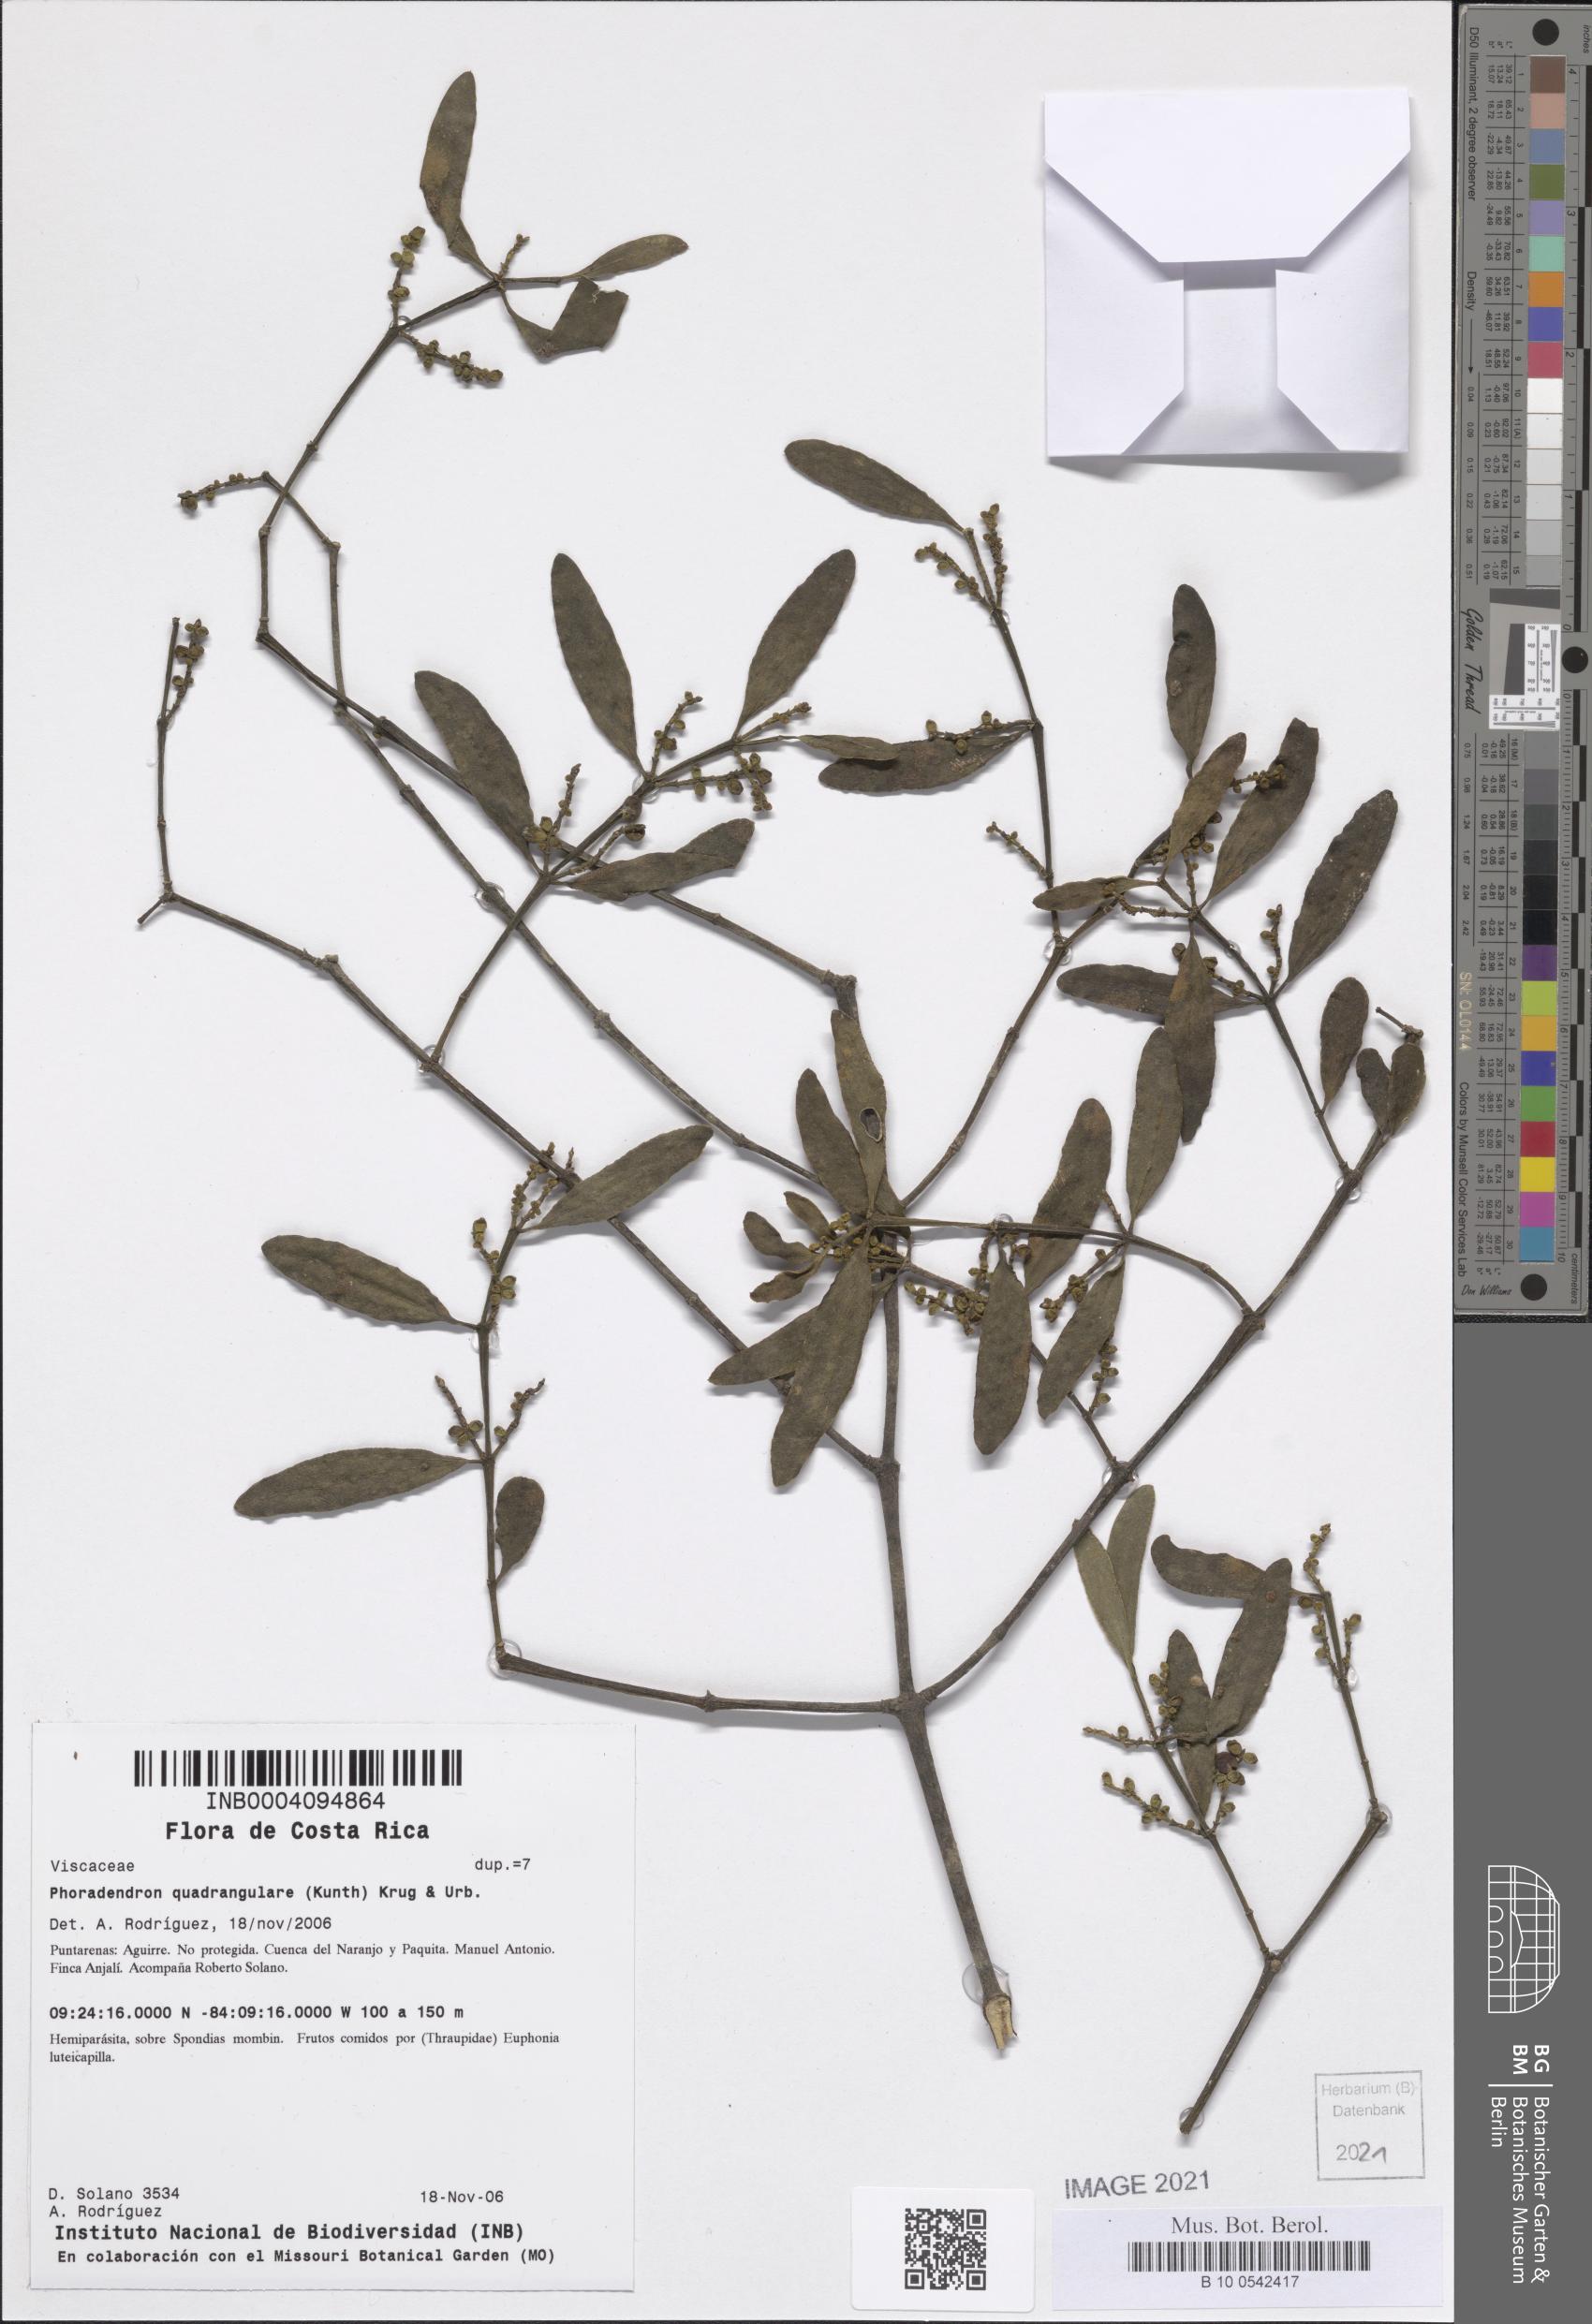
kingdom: Plantae
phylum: Tracheophyta
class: Magnoliopsida
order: Santalales
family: Viscaceae
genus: Phoradendron
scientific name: Phoradendron quadrangulare
